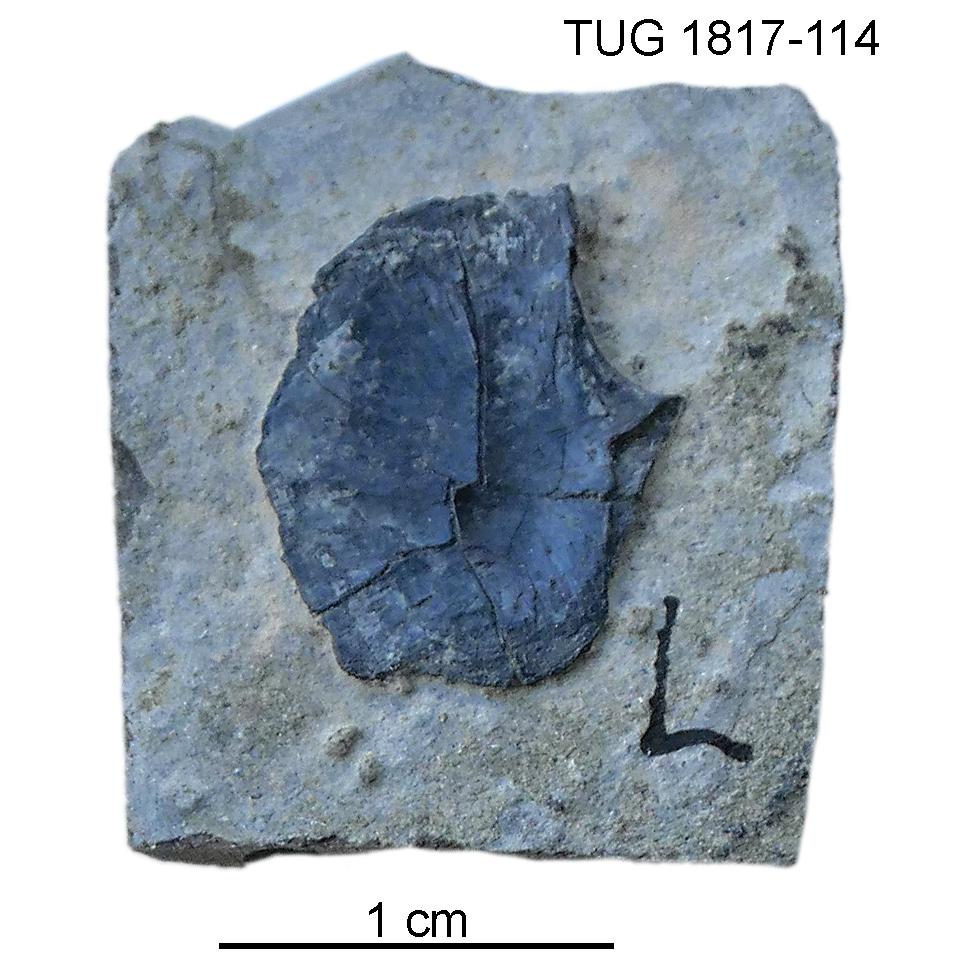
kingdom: Animalia
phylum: Chordata
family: Coccosteidae
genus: Millerosteus
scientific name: Millerosteus minor
